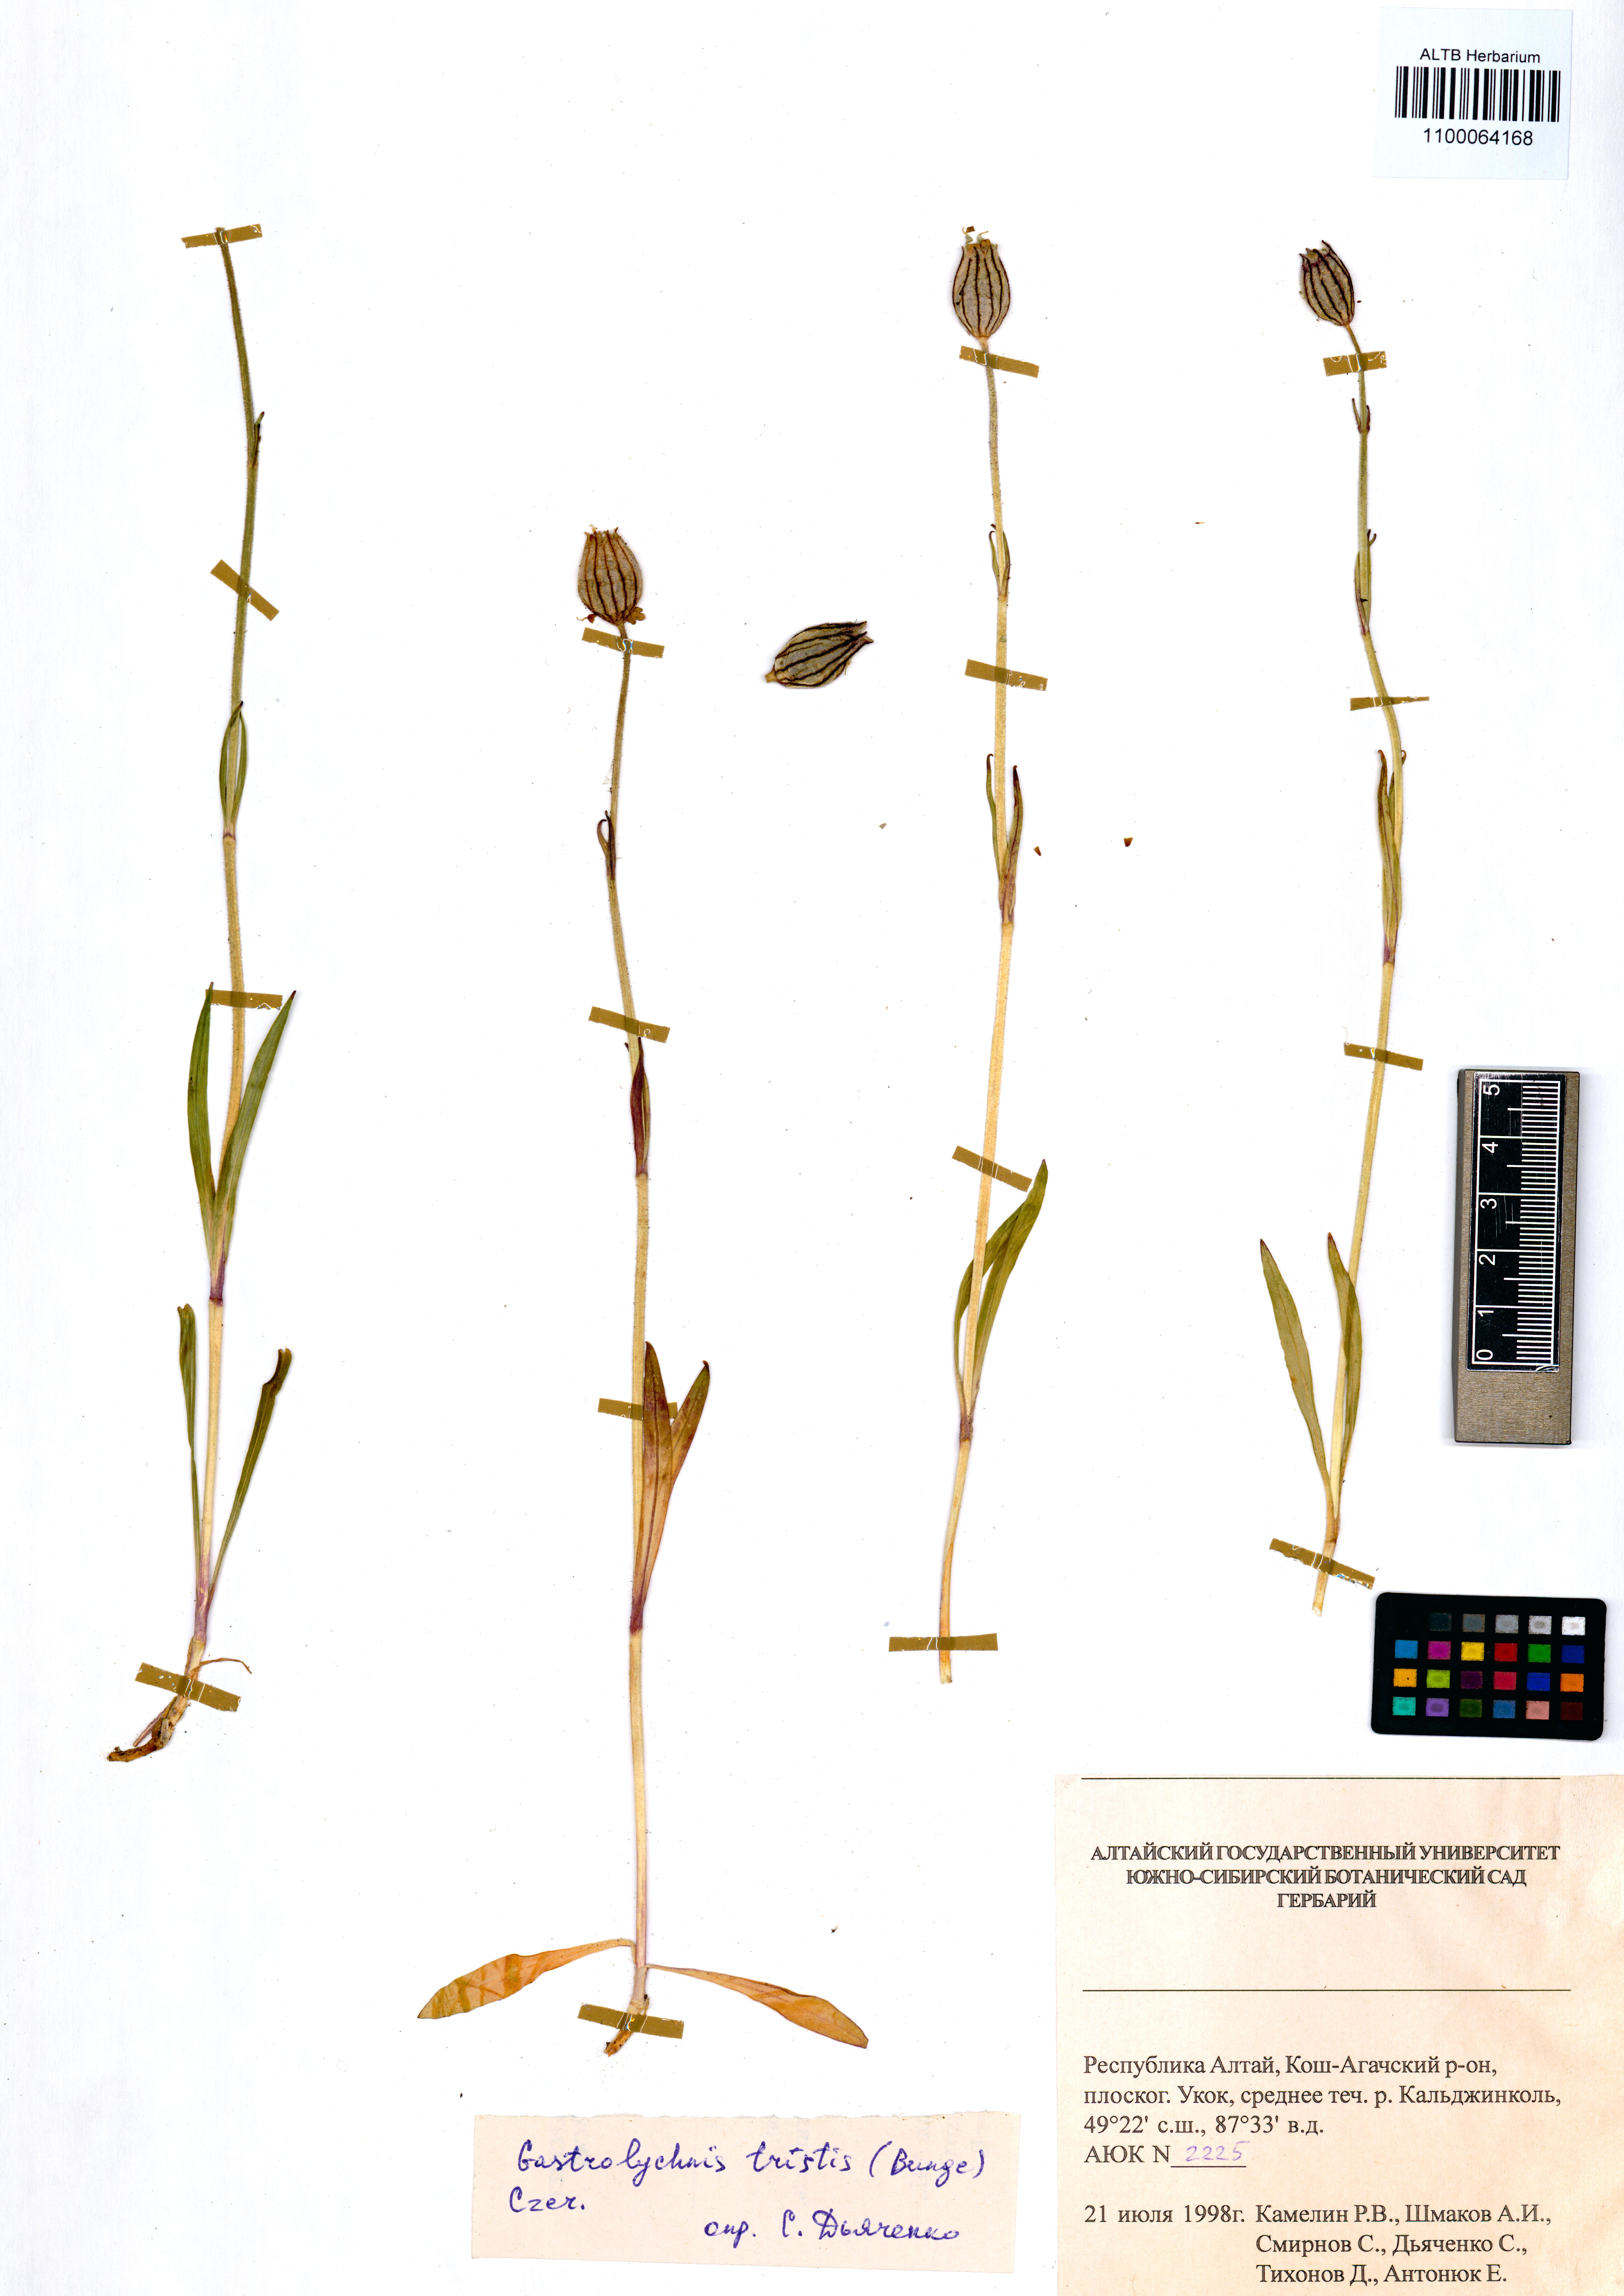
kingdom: Plantae
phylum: Tracheophyta
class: Magnoliopsida
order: Caryophyllales
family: Caryophyllaceae
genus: Silene
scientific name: Silene bungei
